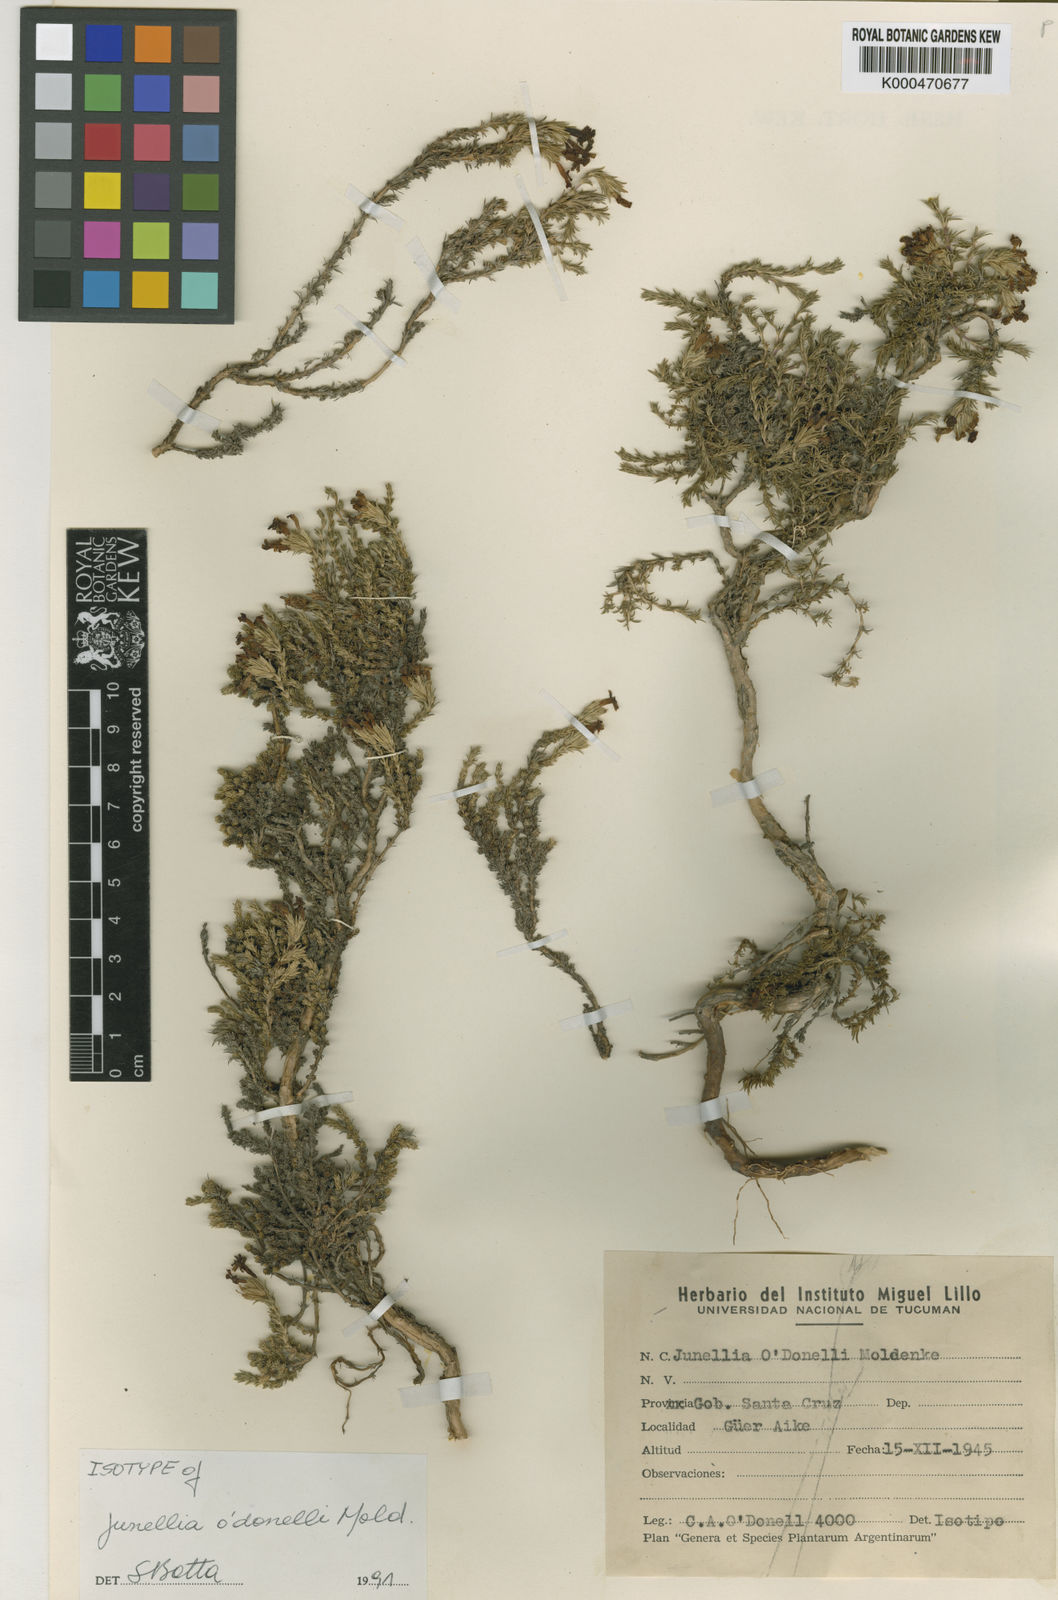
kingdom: Plantae
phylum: Tracheophyta
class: Magnoliopsida
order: Lamiales
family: Verbenaceae
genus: Junellia
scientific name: Junellia
